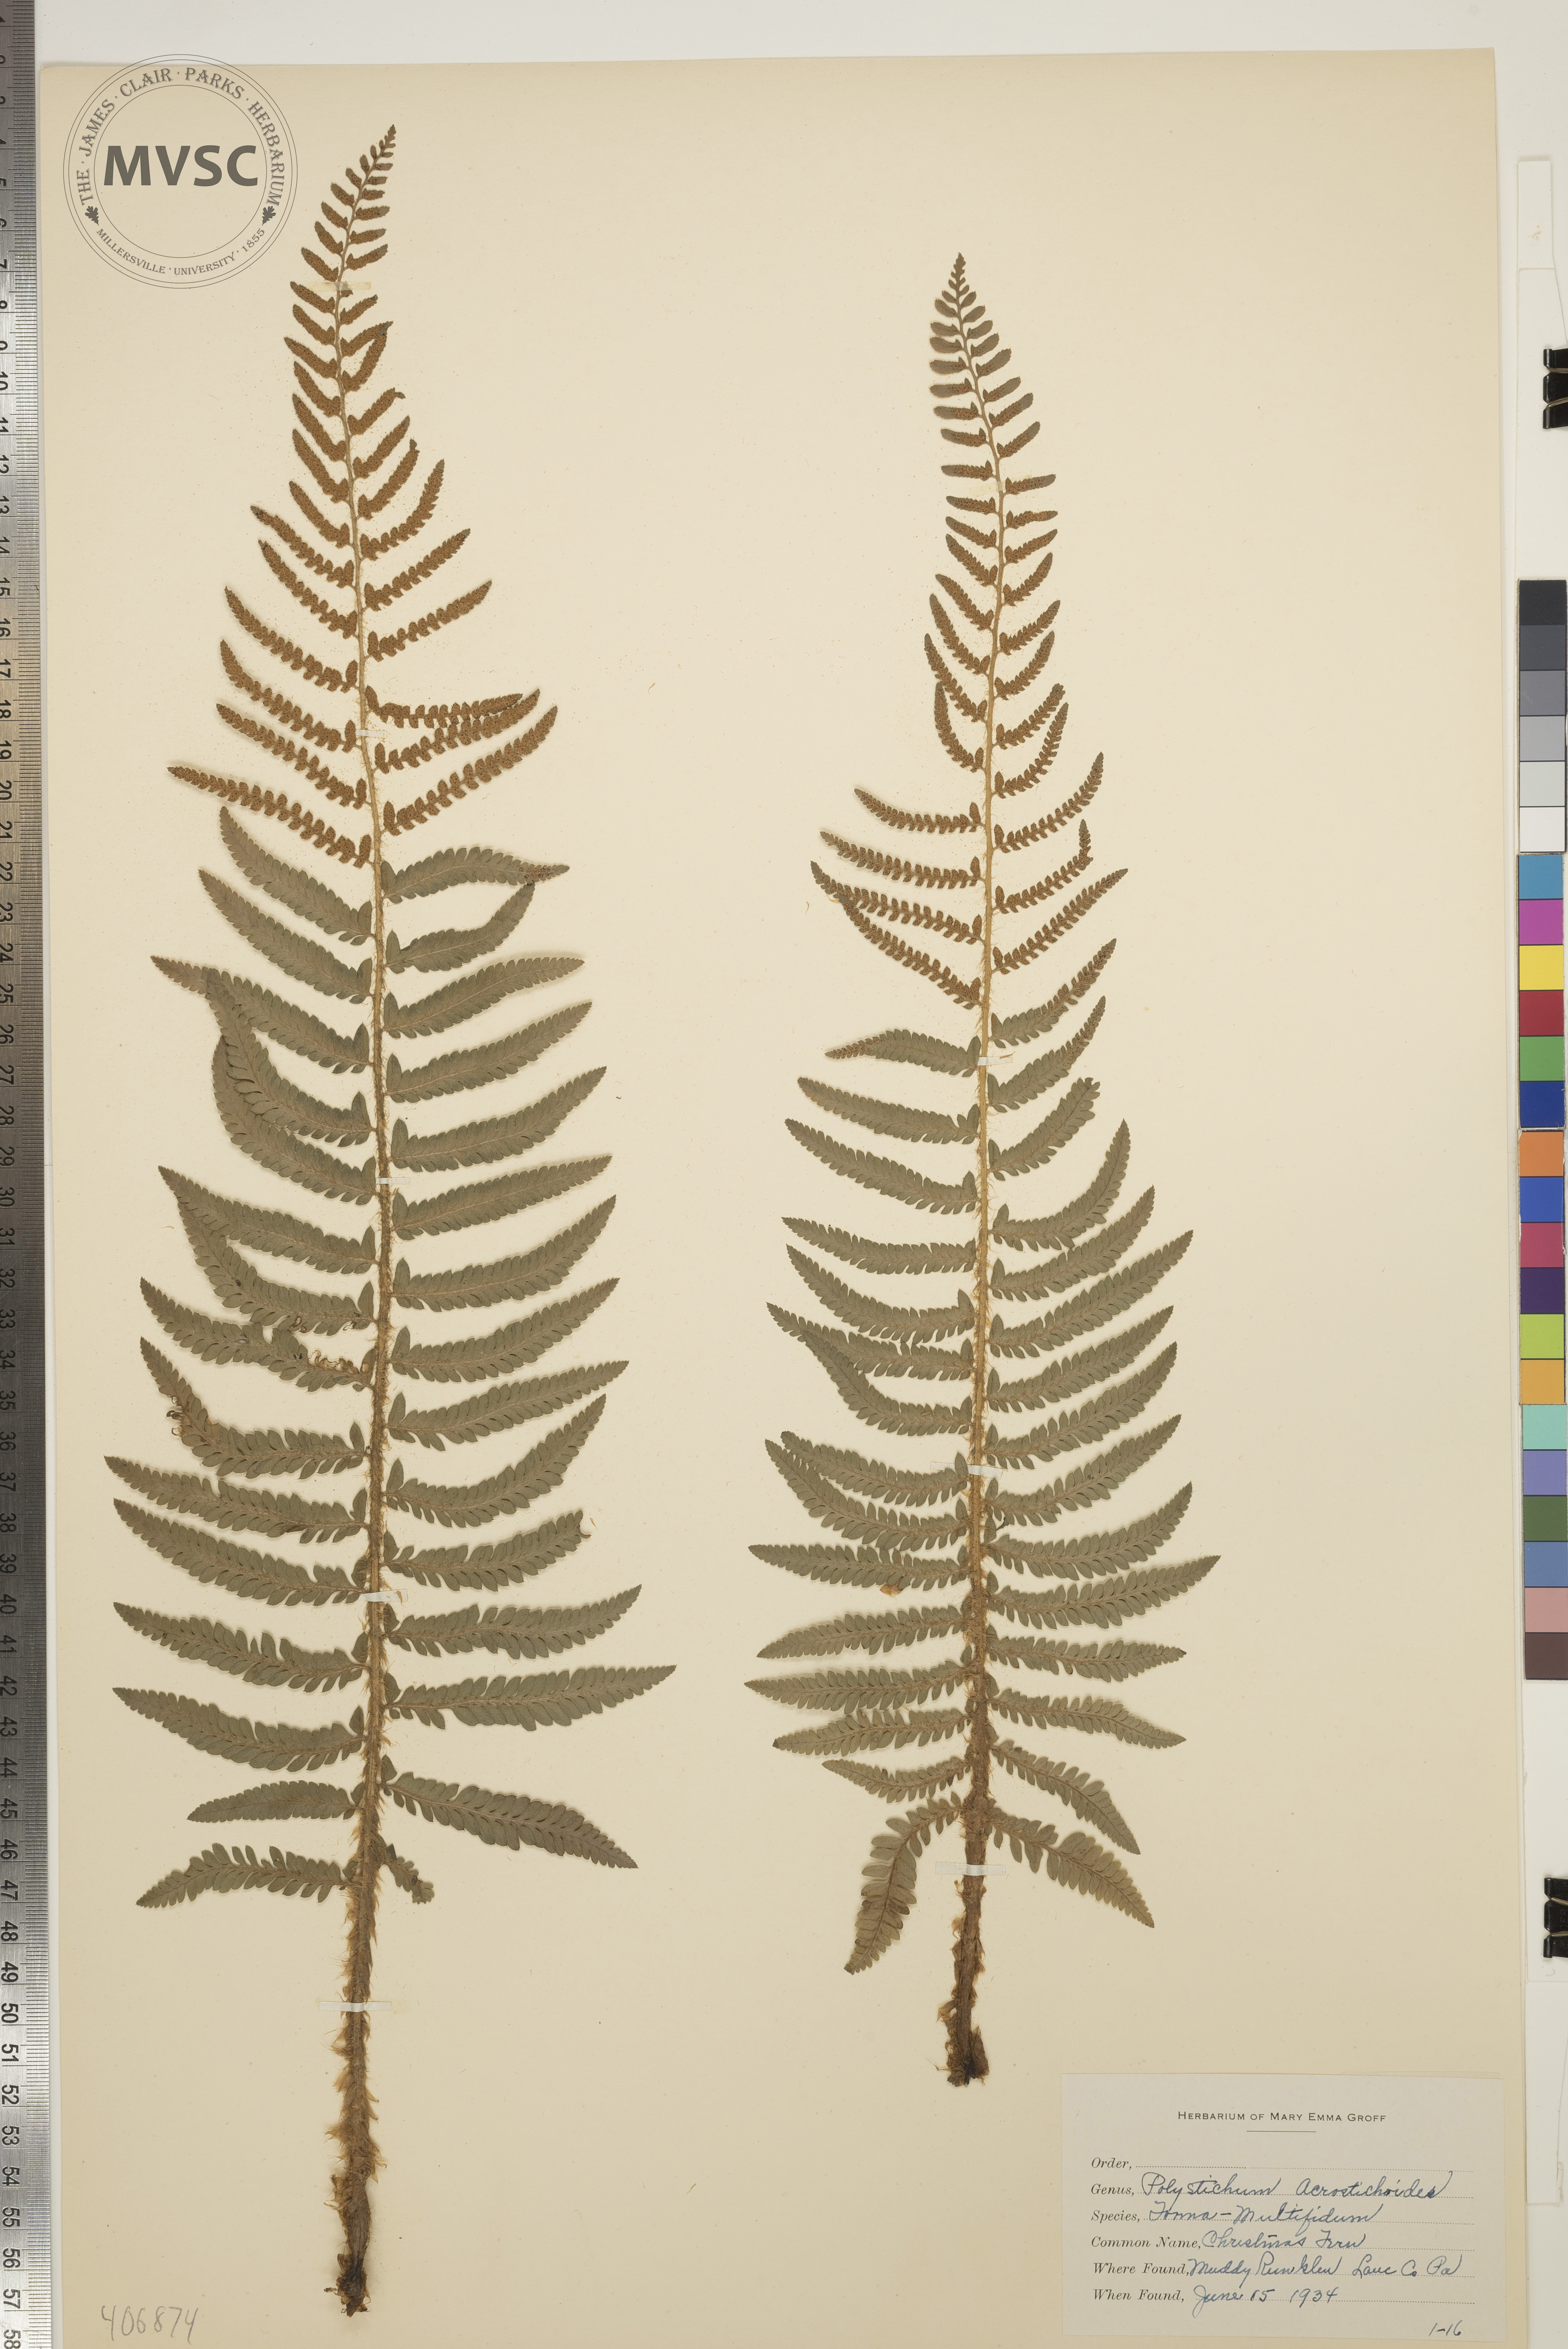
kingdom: Plantae
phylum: Tracheophyta
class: Polypodiopsida
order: Polypodiales
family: Dryopteridaceae
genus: Polystichum
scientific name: Polystichum acrostichoides
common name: Christmas Fern
